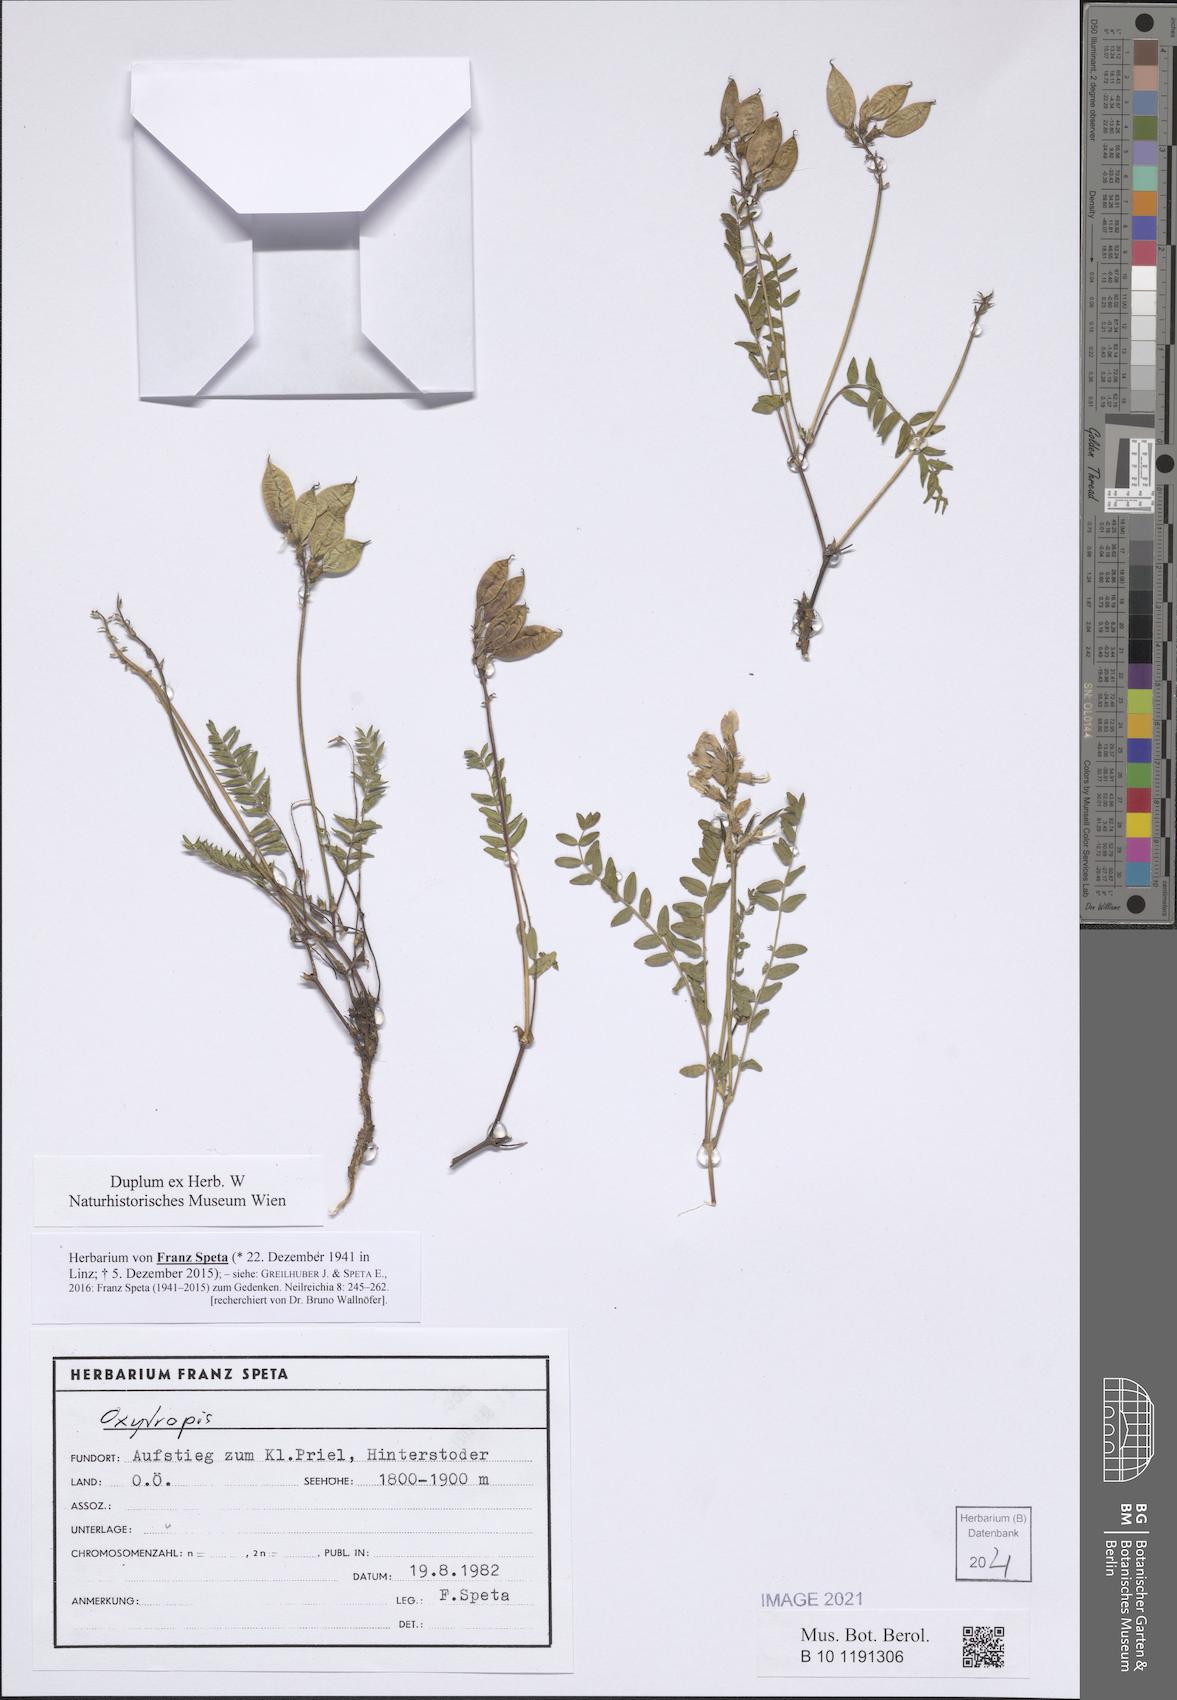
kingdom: Plantae
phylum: Tracheophyta
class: Magnoliopsida
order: Fabales
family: Fabaceae
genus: Oxytropis
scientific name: Oxytropis
